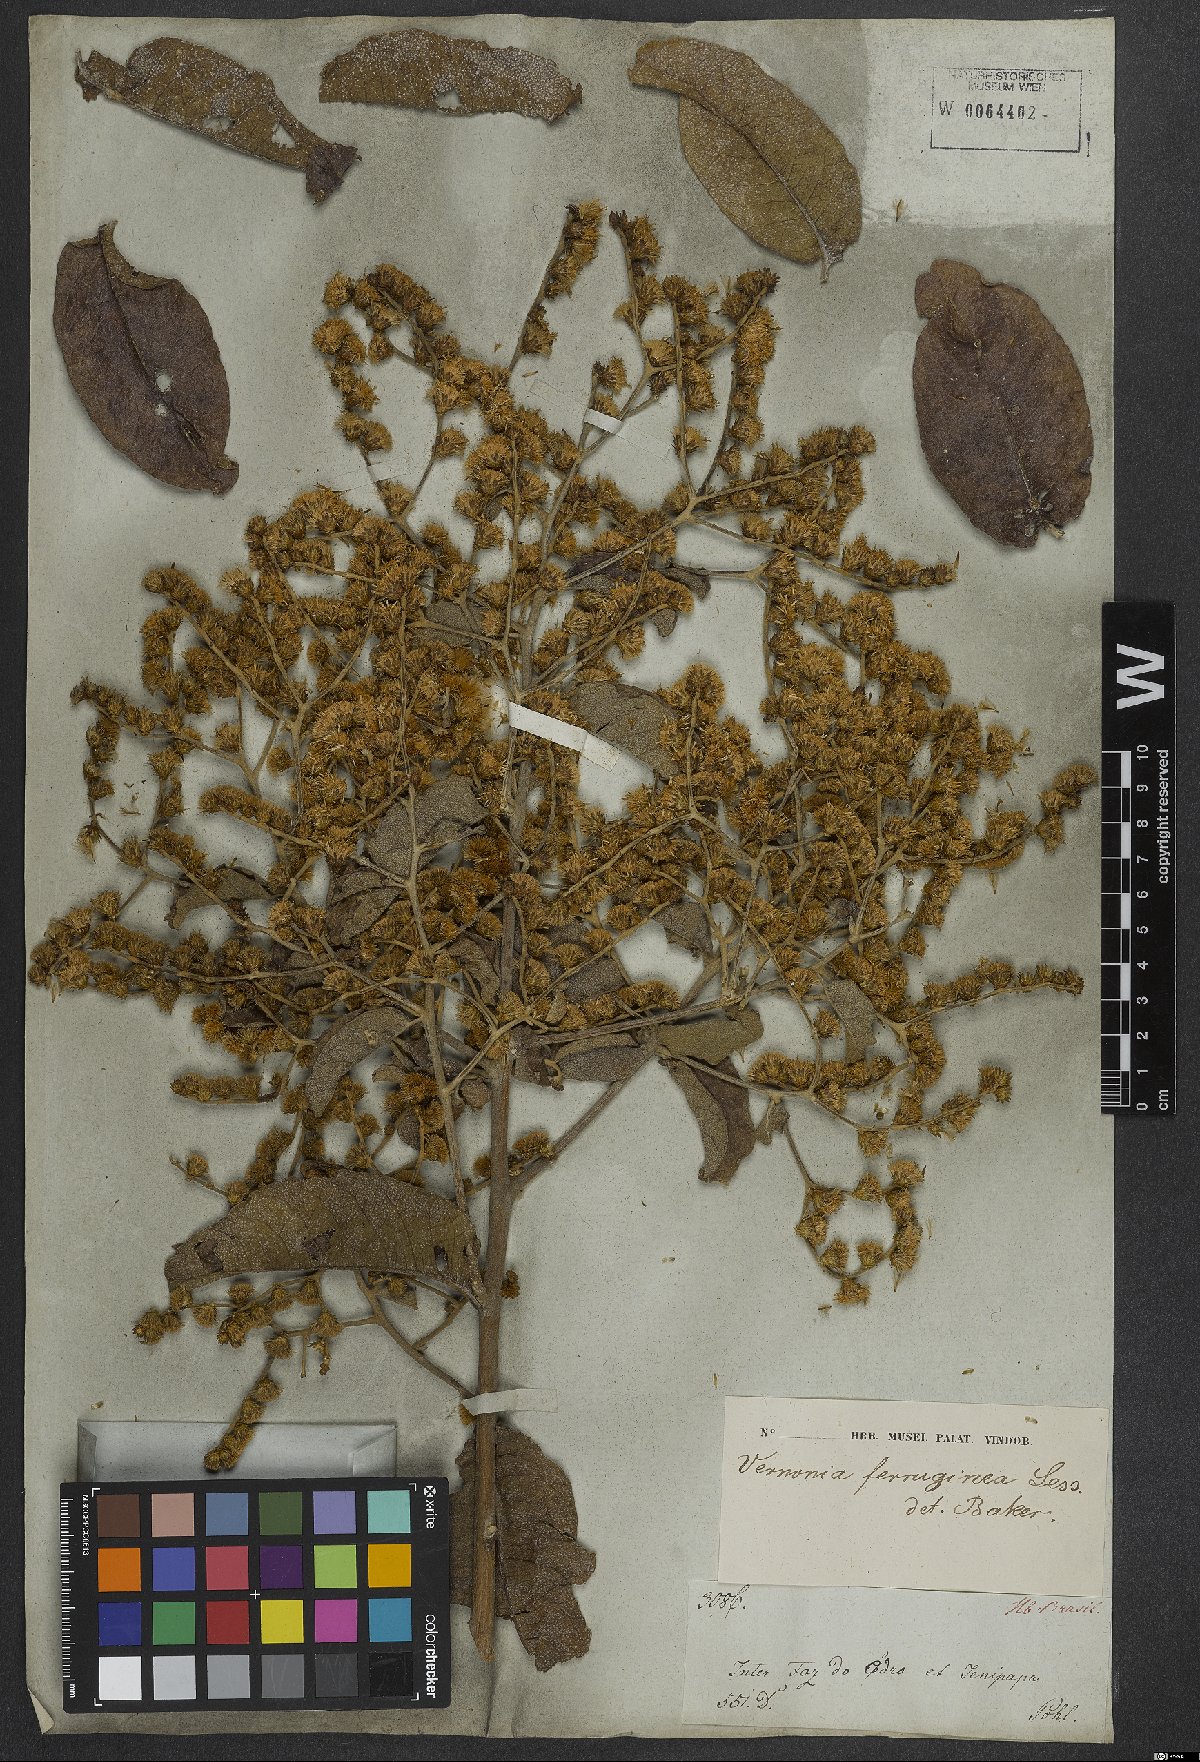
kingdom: Plantae
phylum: Tracheophyta
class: Magnoliopsida
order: Asterales
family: Asteraceae
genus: Vernonanthura
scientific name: Vernonanthura ferruginea
